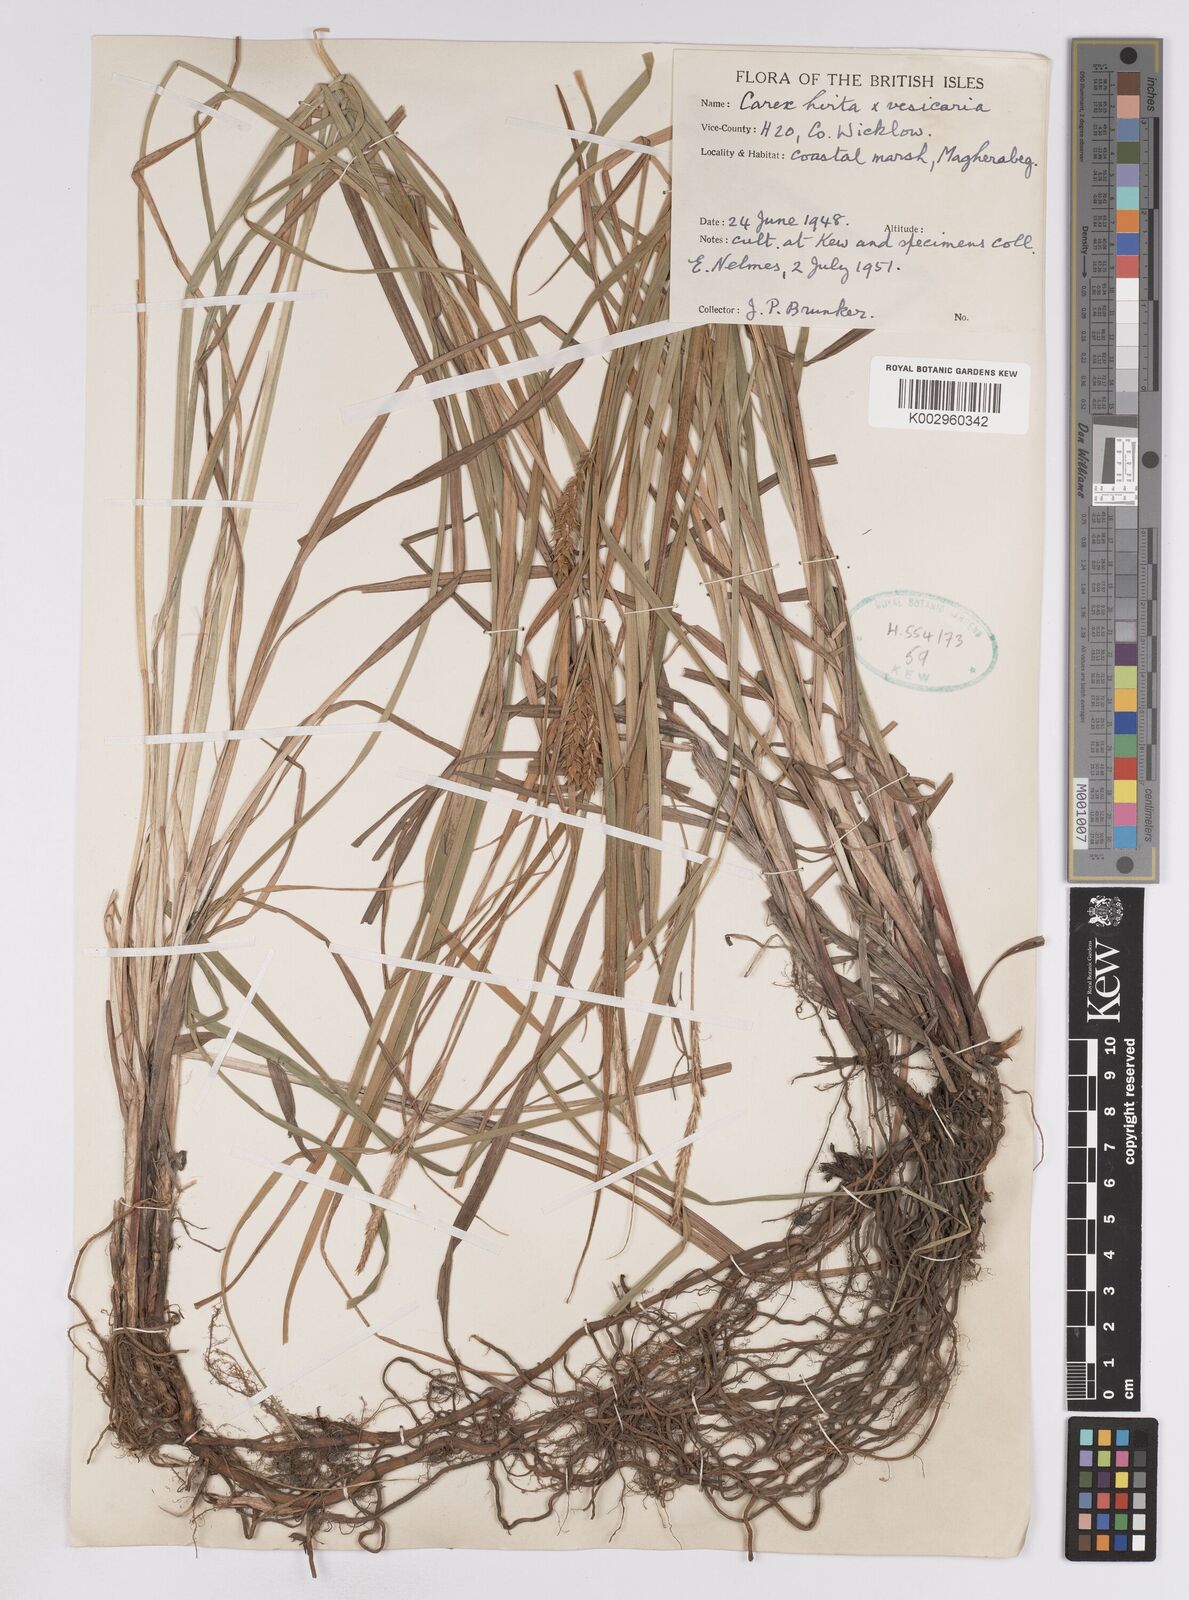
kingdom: Plantae
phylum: Tracheophyta
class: Liliopsida
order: Poales
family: Cyperaceae
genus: Carex
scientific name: Carex vesicaria
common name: Bladder-sedge
